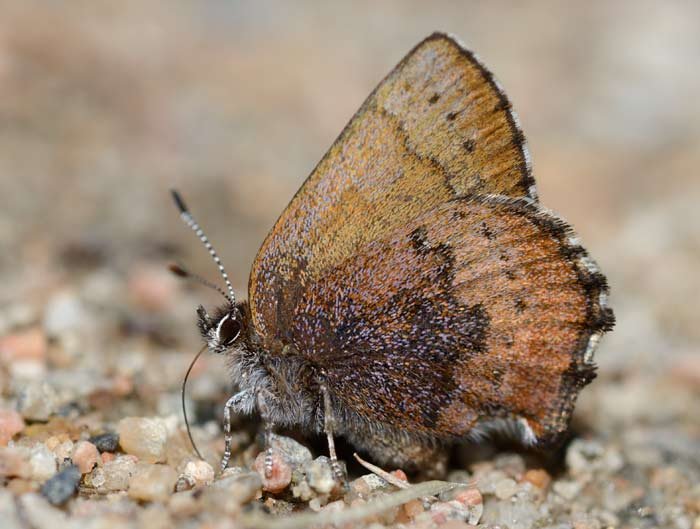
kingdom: Animalia
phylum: Arthropoda
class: Insecta
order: Lepidoptera
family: Lycaenidae
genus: Incisalia
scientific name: Incisalia irioides
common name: Brown Elfin
